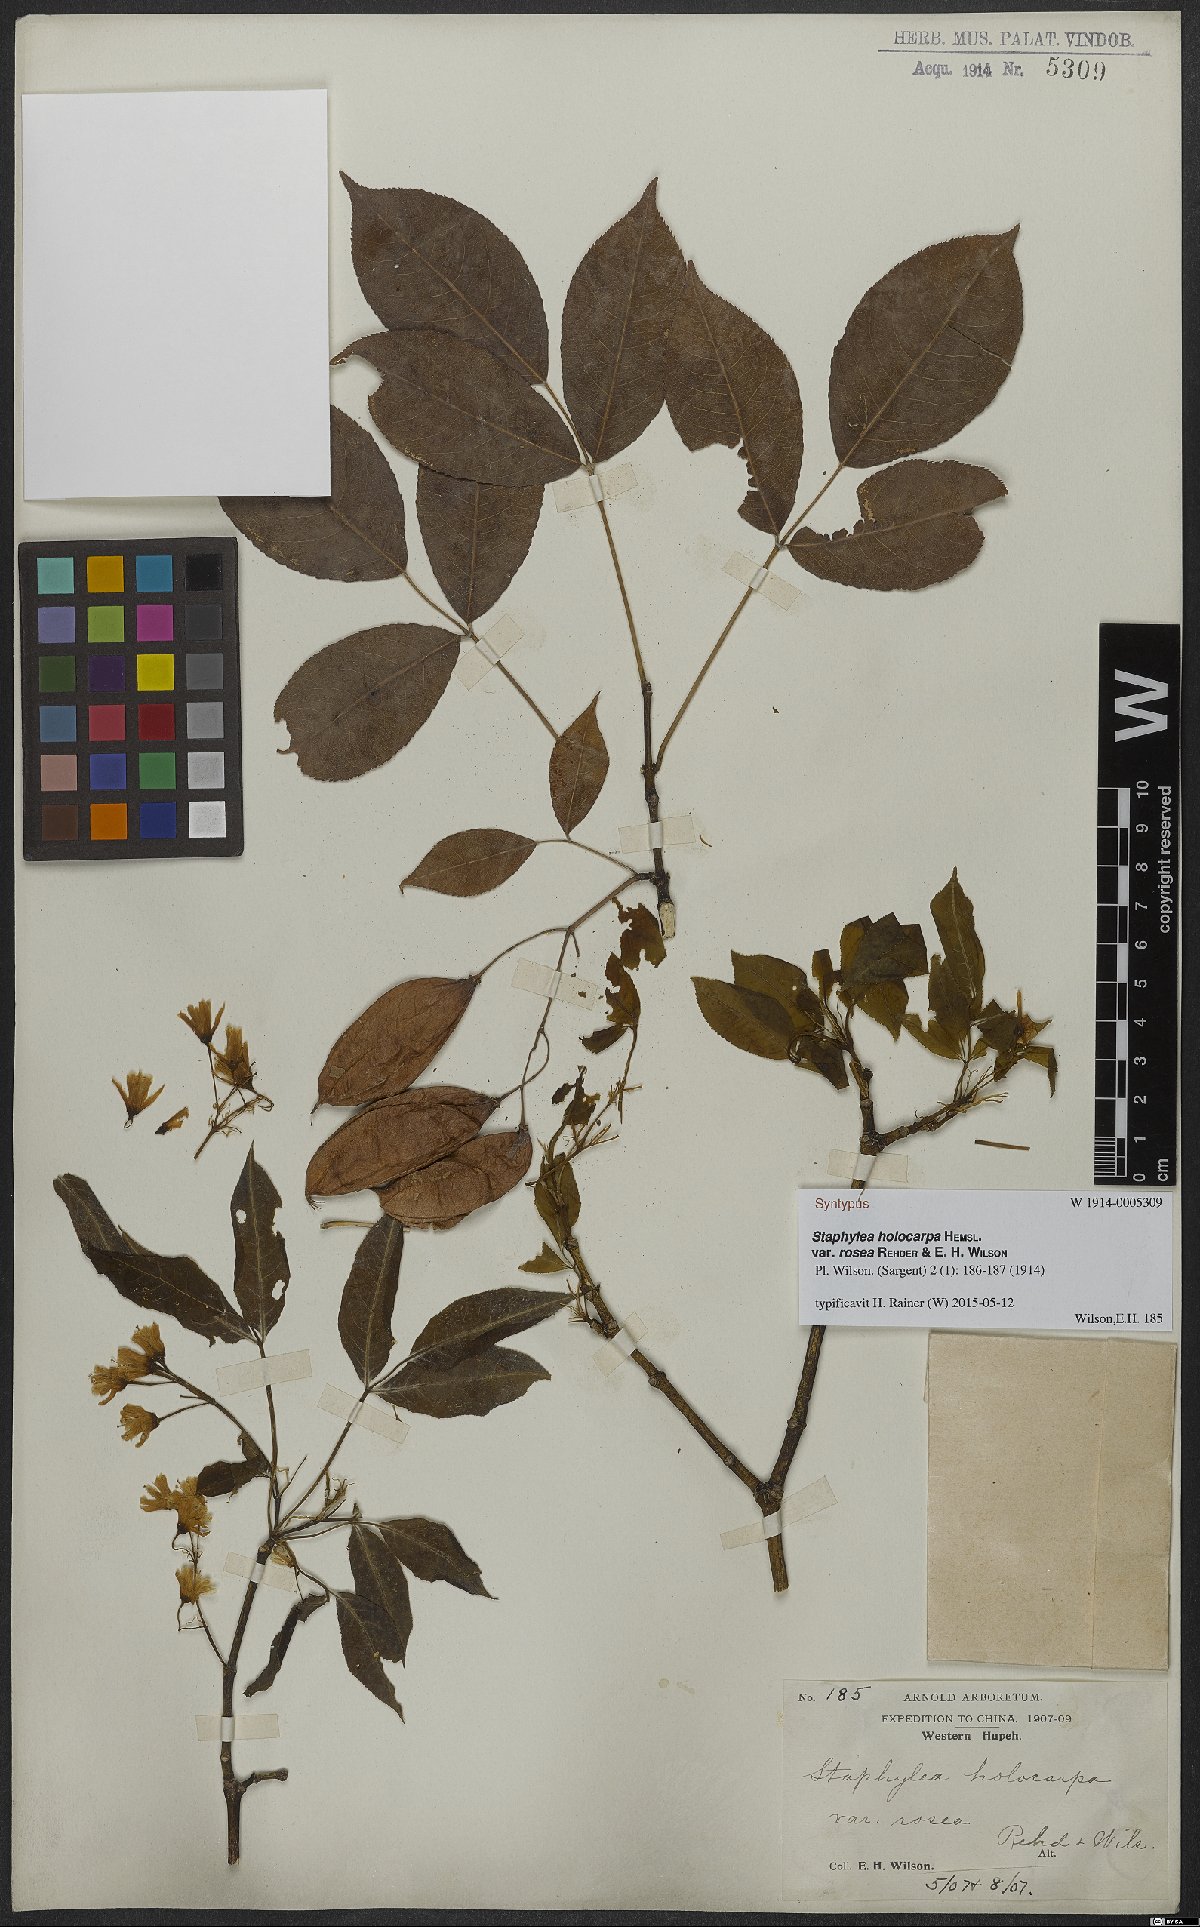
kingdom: Plantae
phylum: Tracheophyta
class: Magnoliopsida
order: Crossosomatales
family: Staphyleaceae
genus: Staphylea
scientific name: Staphylea holocarpa
